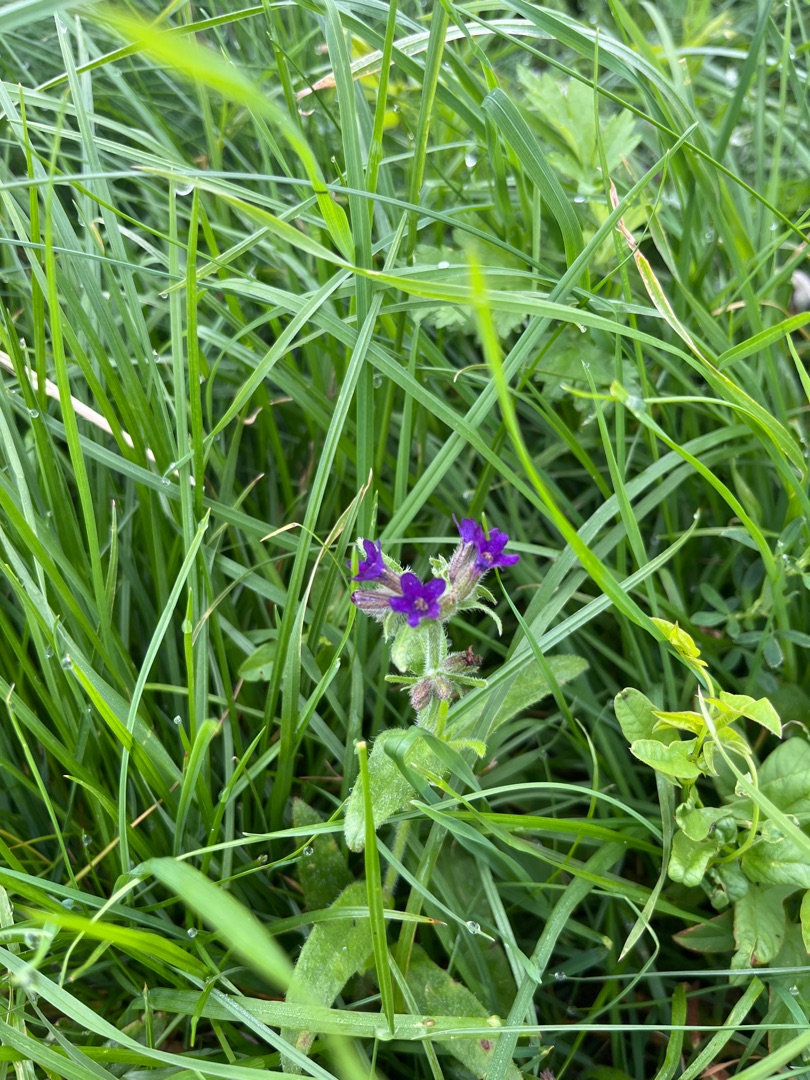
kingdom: Plantae
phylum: Tracheophyta
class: Magnoliopsida
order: Boraginales
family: Boraginaceae
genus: Anchusa
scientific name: Anchusa officinalis
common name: Læge-oksetunge
